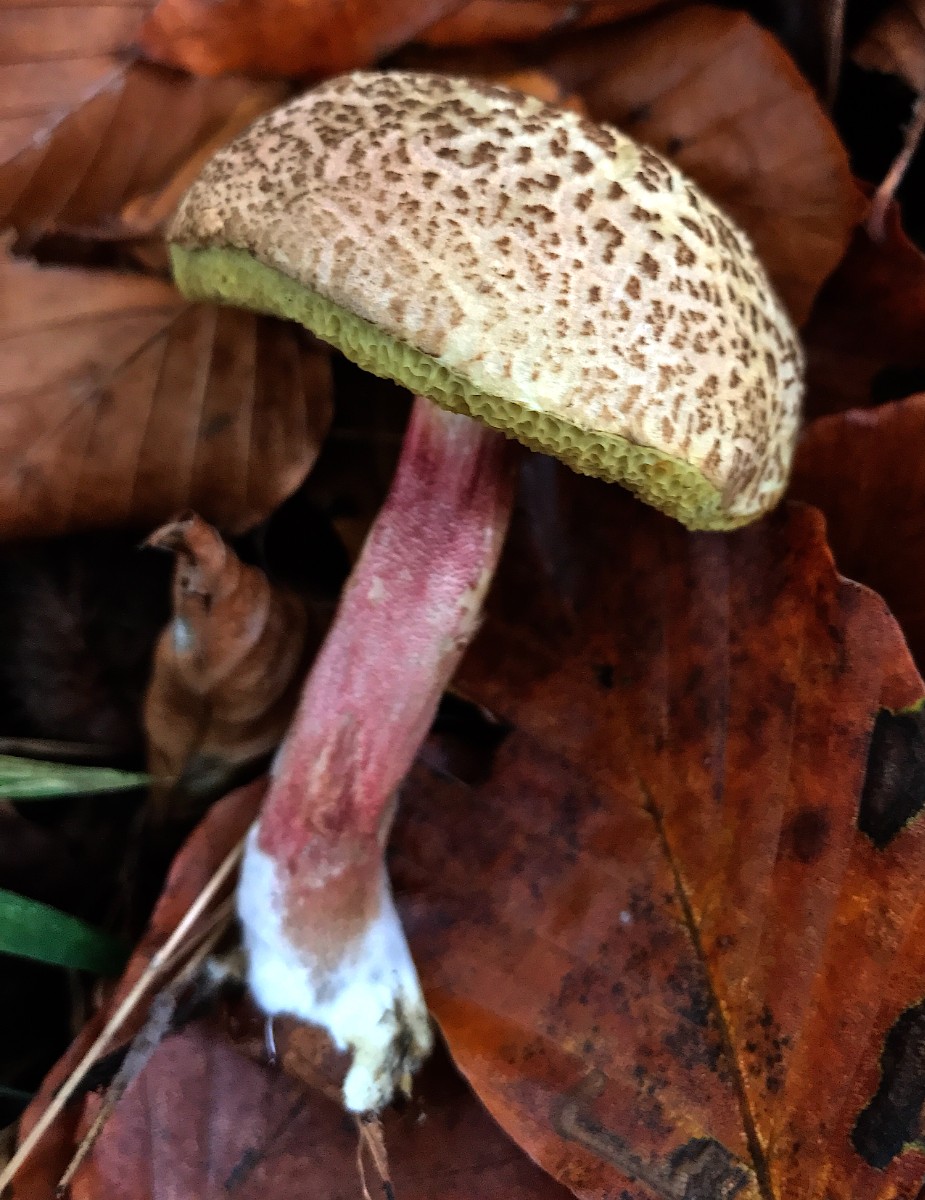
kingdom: Fungi
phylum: Basidiomycota
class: Agaricomycetes
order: Boletales
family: Boletaceae
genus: Xerocomellus
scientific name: Xerocomellus chrysenteron
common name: rødsprukken rørhat
